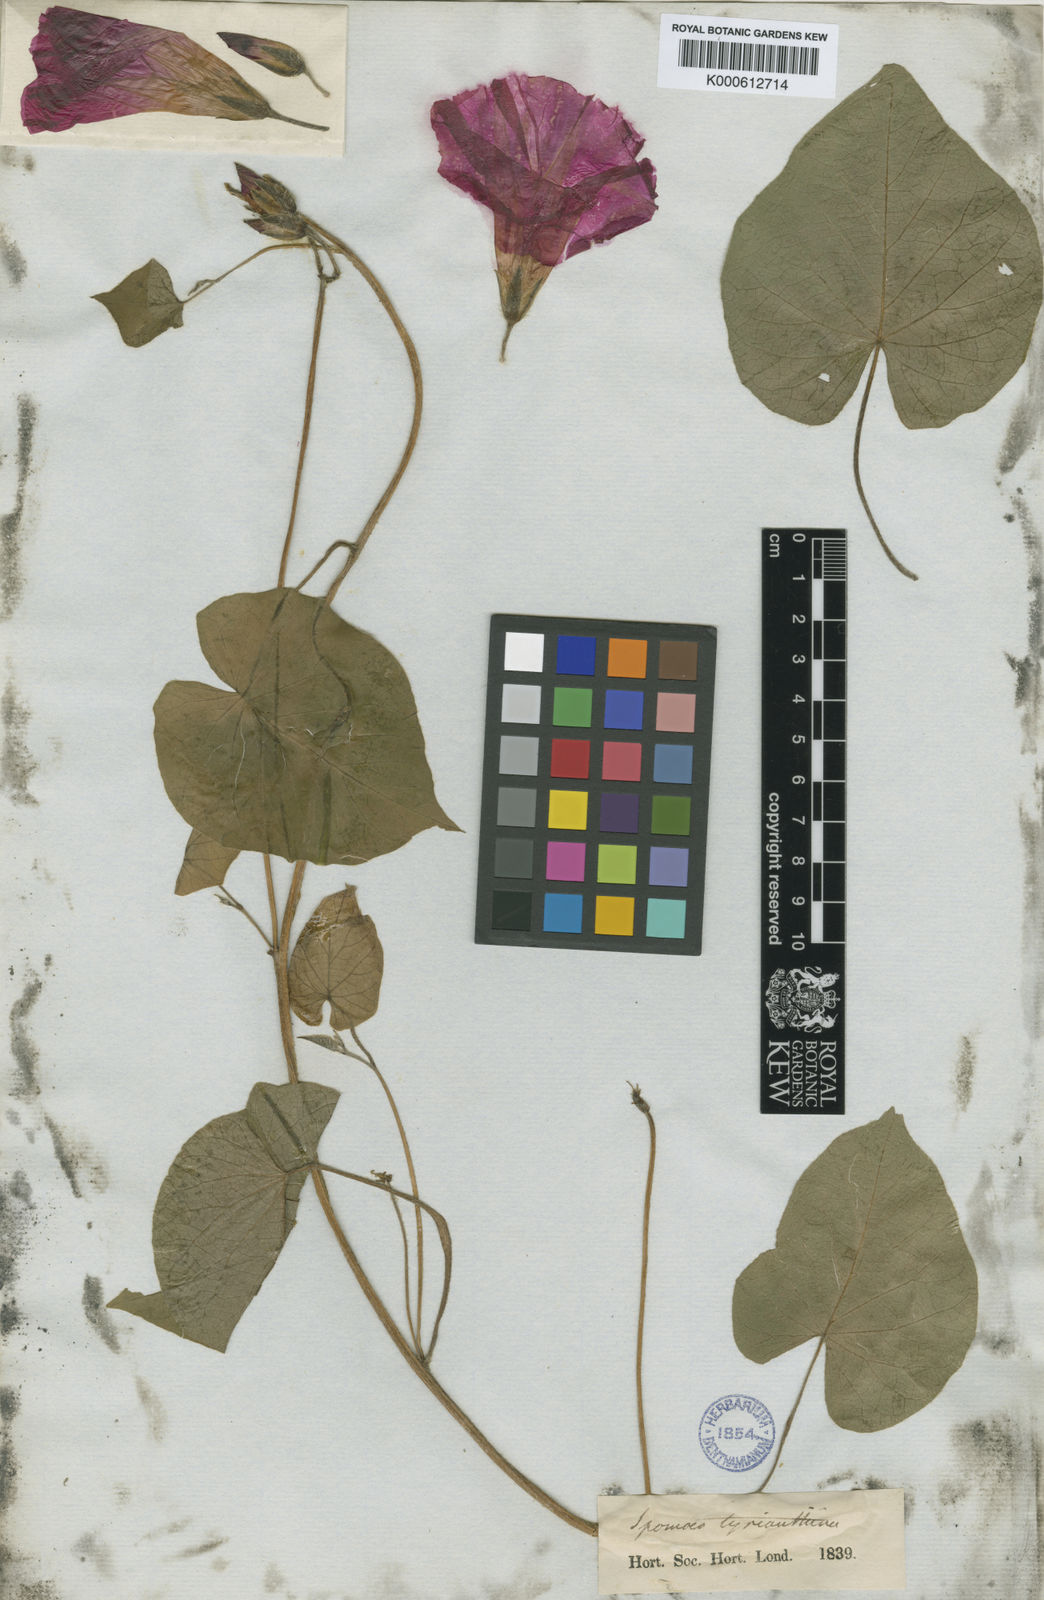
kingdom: Plantae
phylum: Tracheophyta
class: Magnoliopsida
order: Solanales
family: Convolvulaceae
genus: Ipomoea
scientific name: Ipomoea orizabensis
